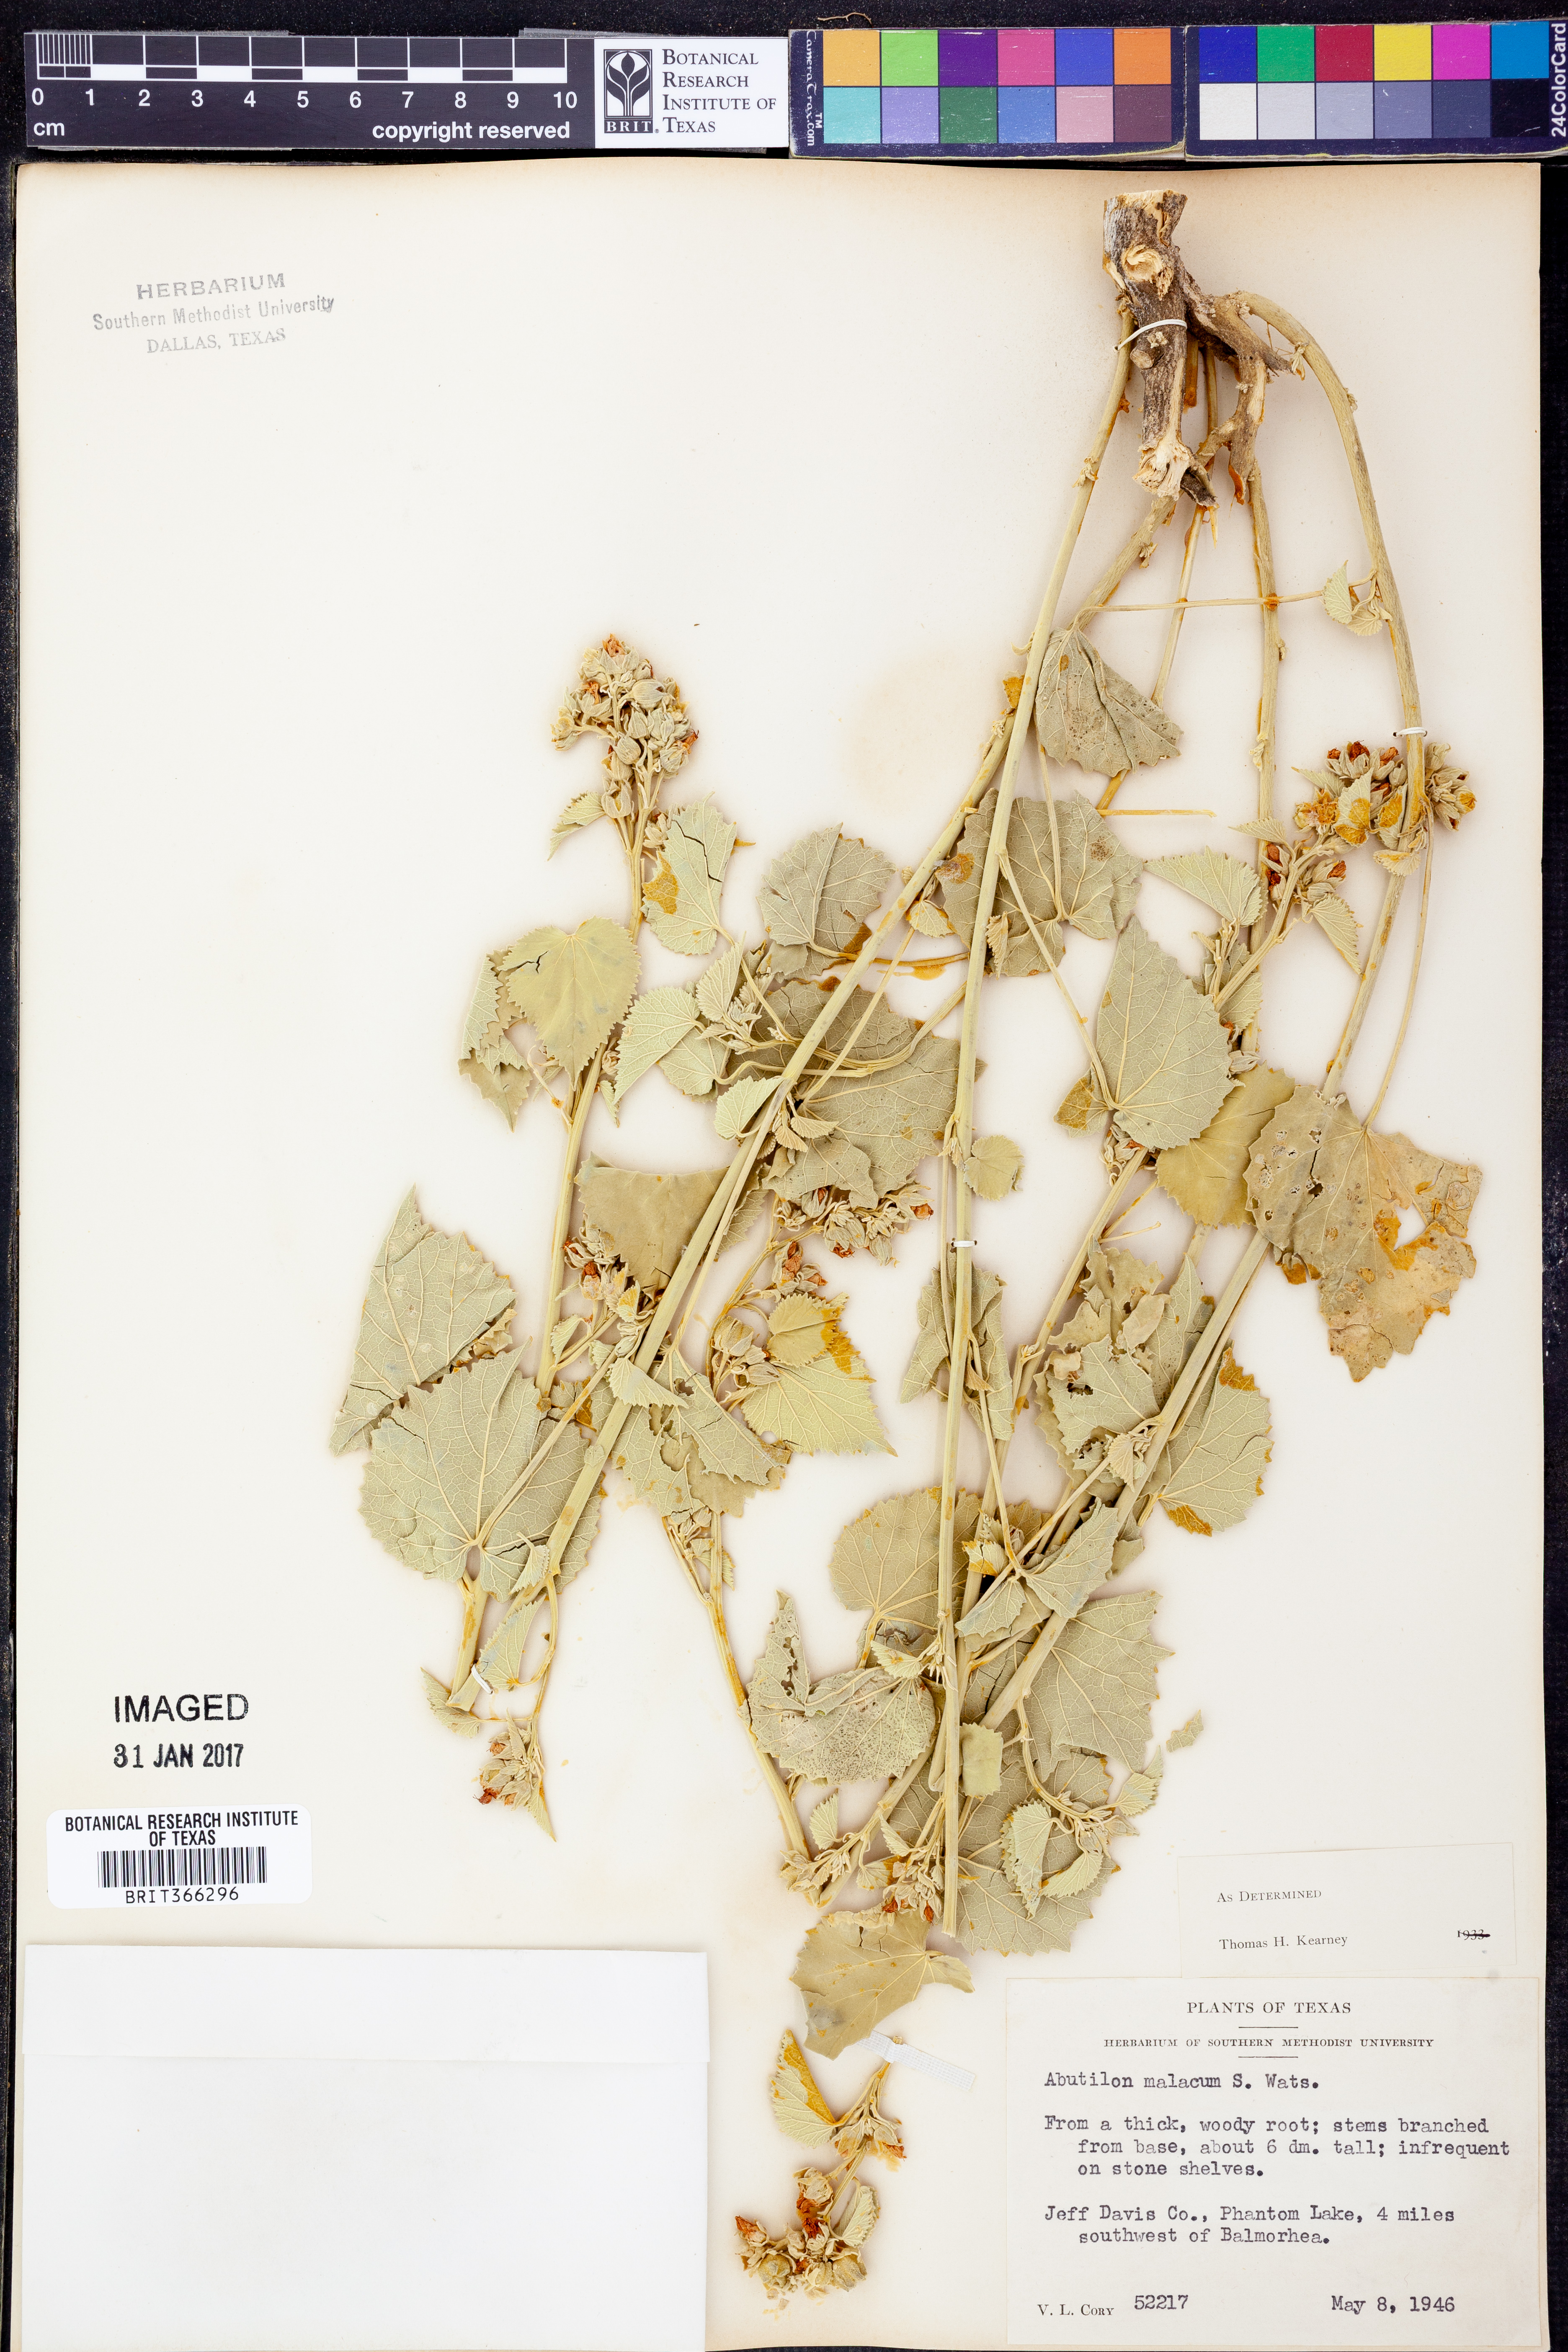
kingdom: Plantae
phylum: Tracheophyta
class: Magnoliopsida
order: Malvales
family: Malvaceae
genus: Abutilon
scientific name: Abutilon malacum
